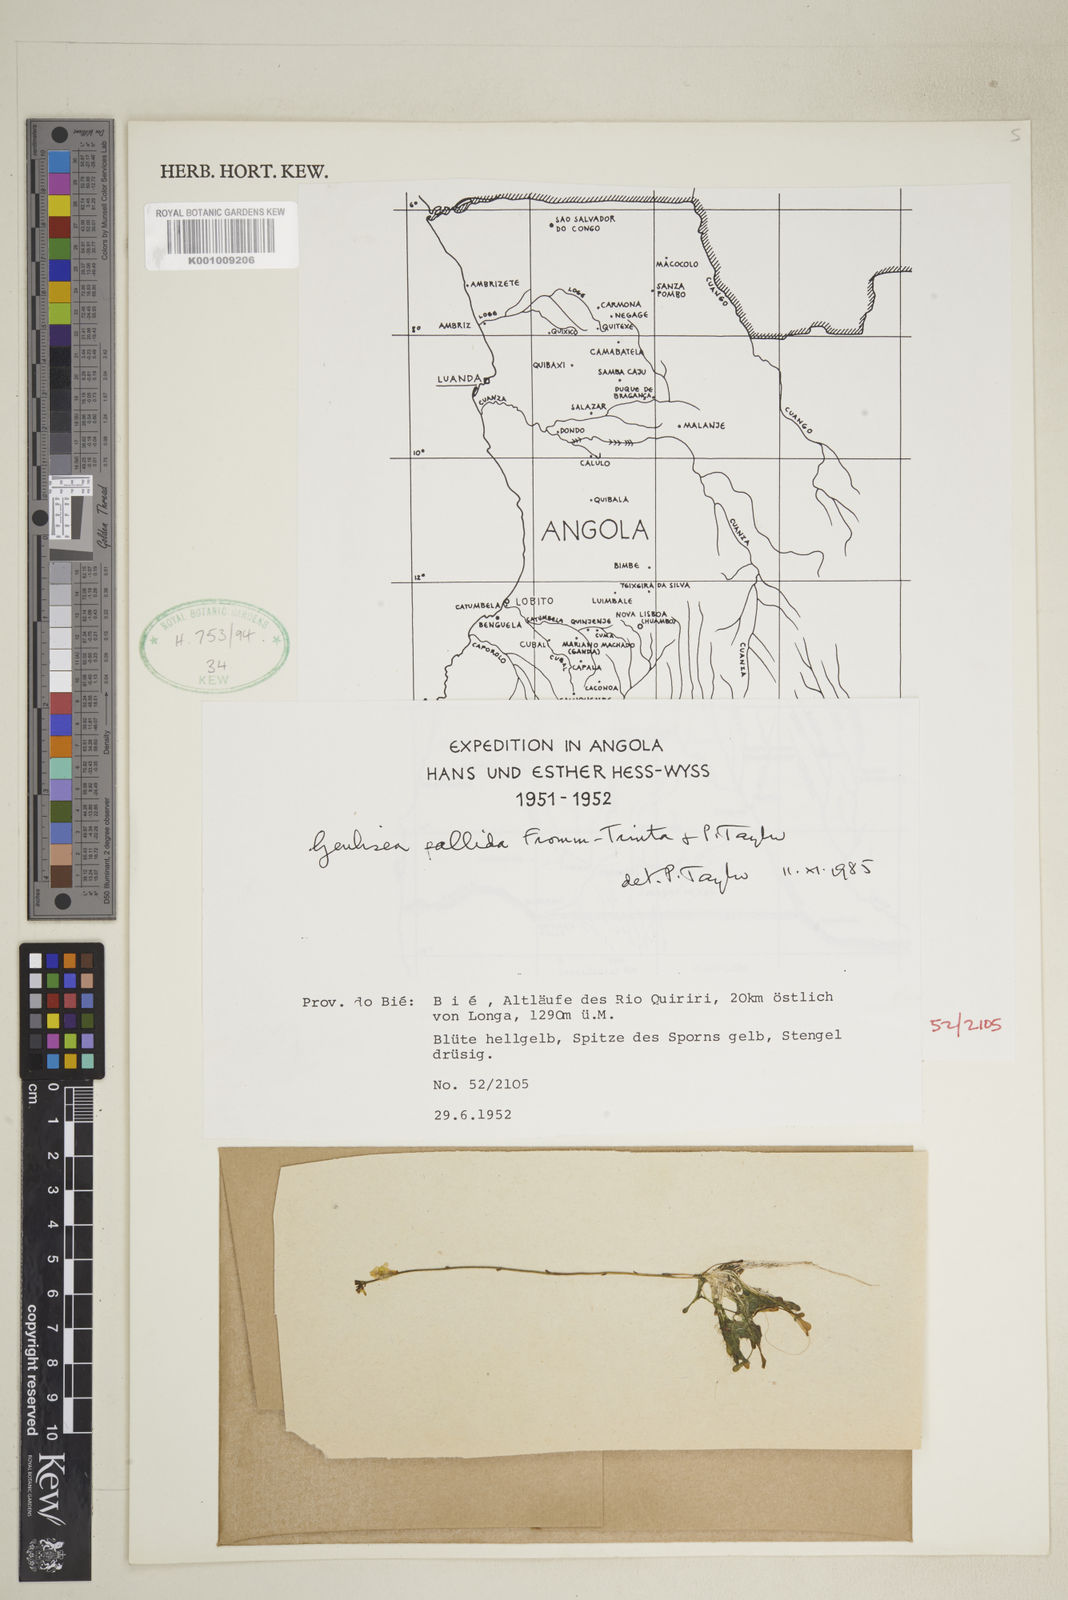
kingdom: Plantae
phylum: Tracheophyta
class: Magnoliopsida
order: Lamiales
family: Lentibulariaceae
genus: Genlisea
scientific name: Genlisea pallida
